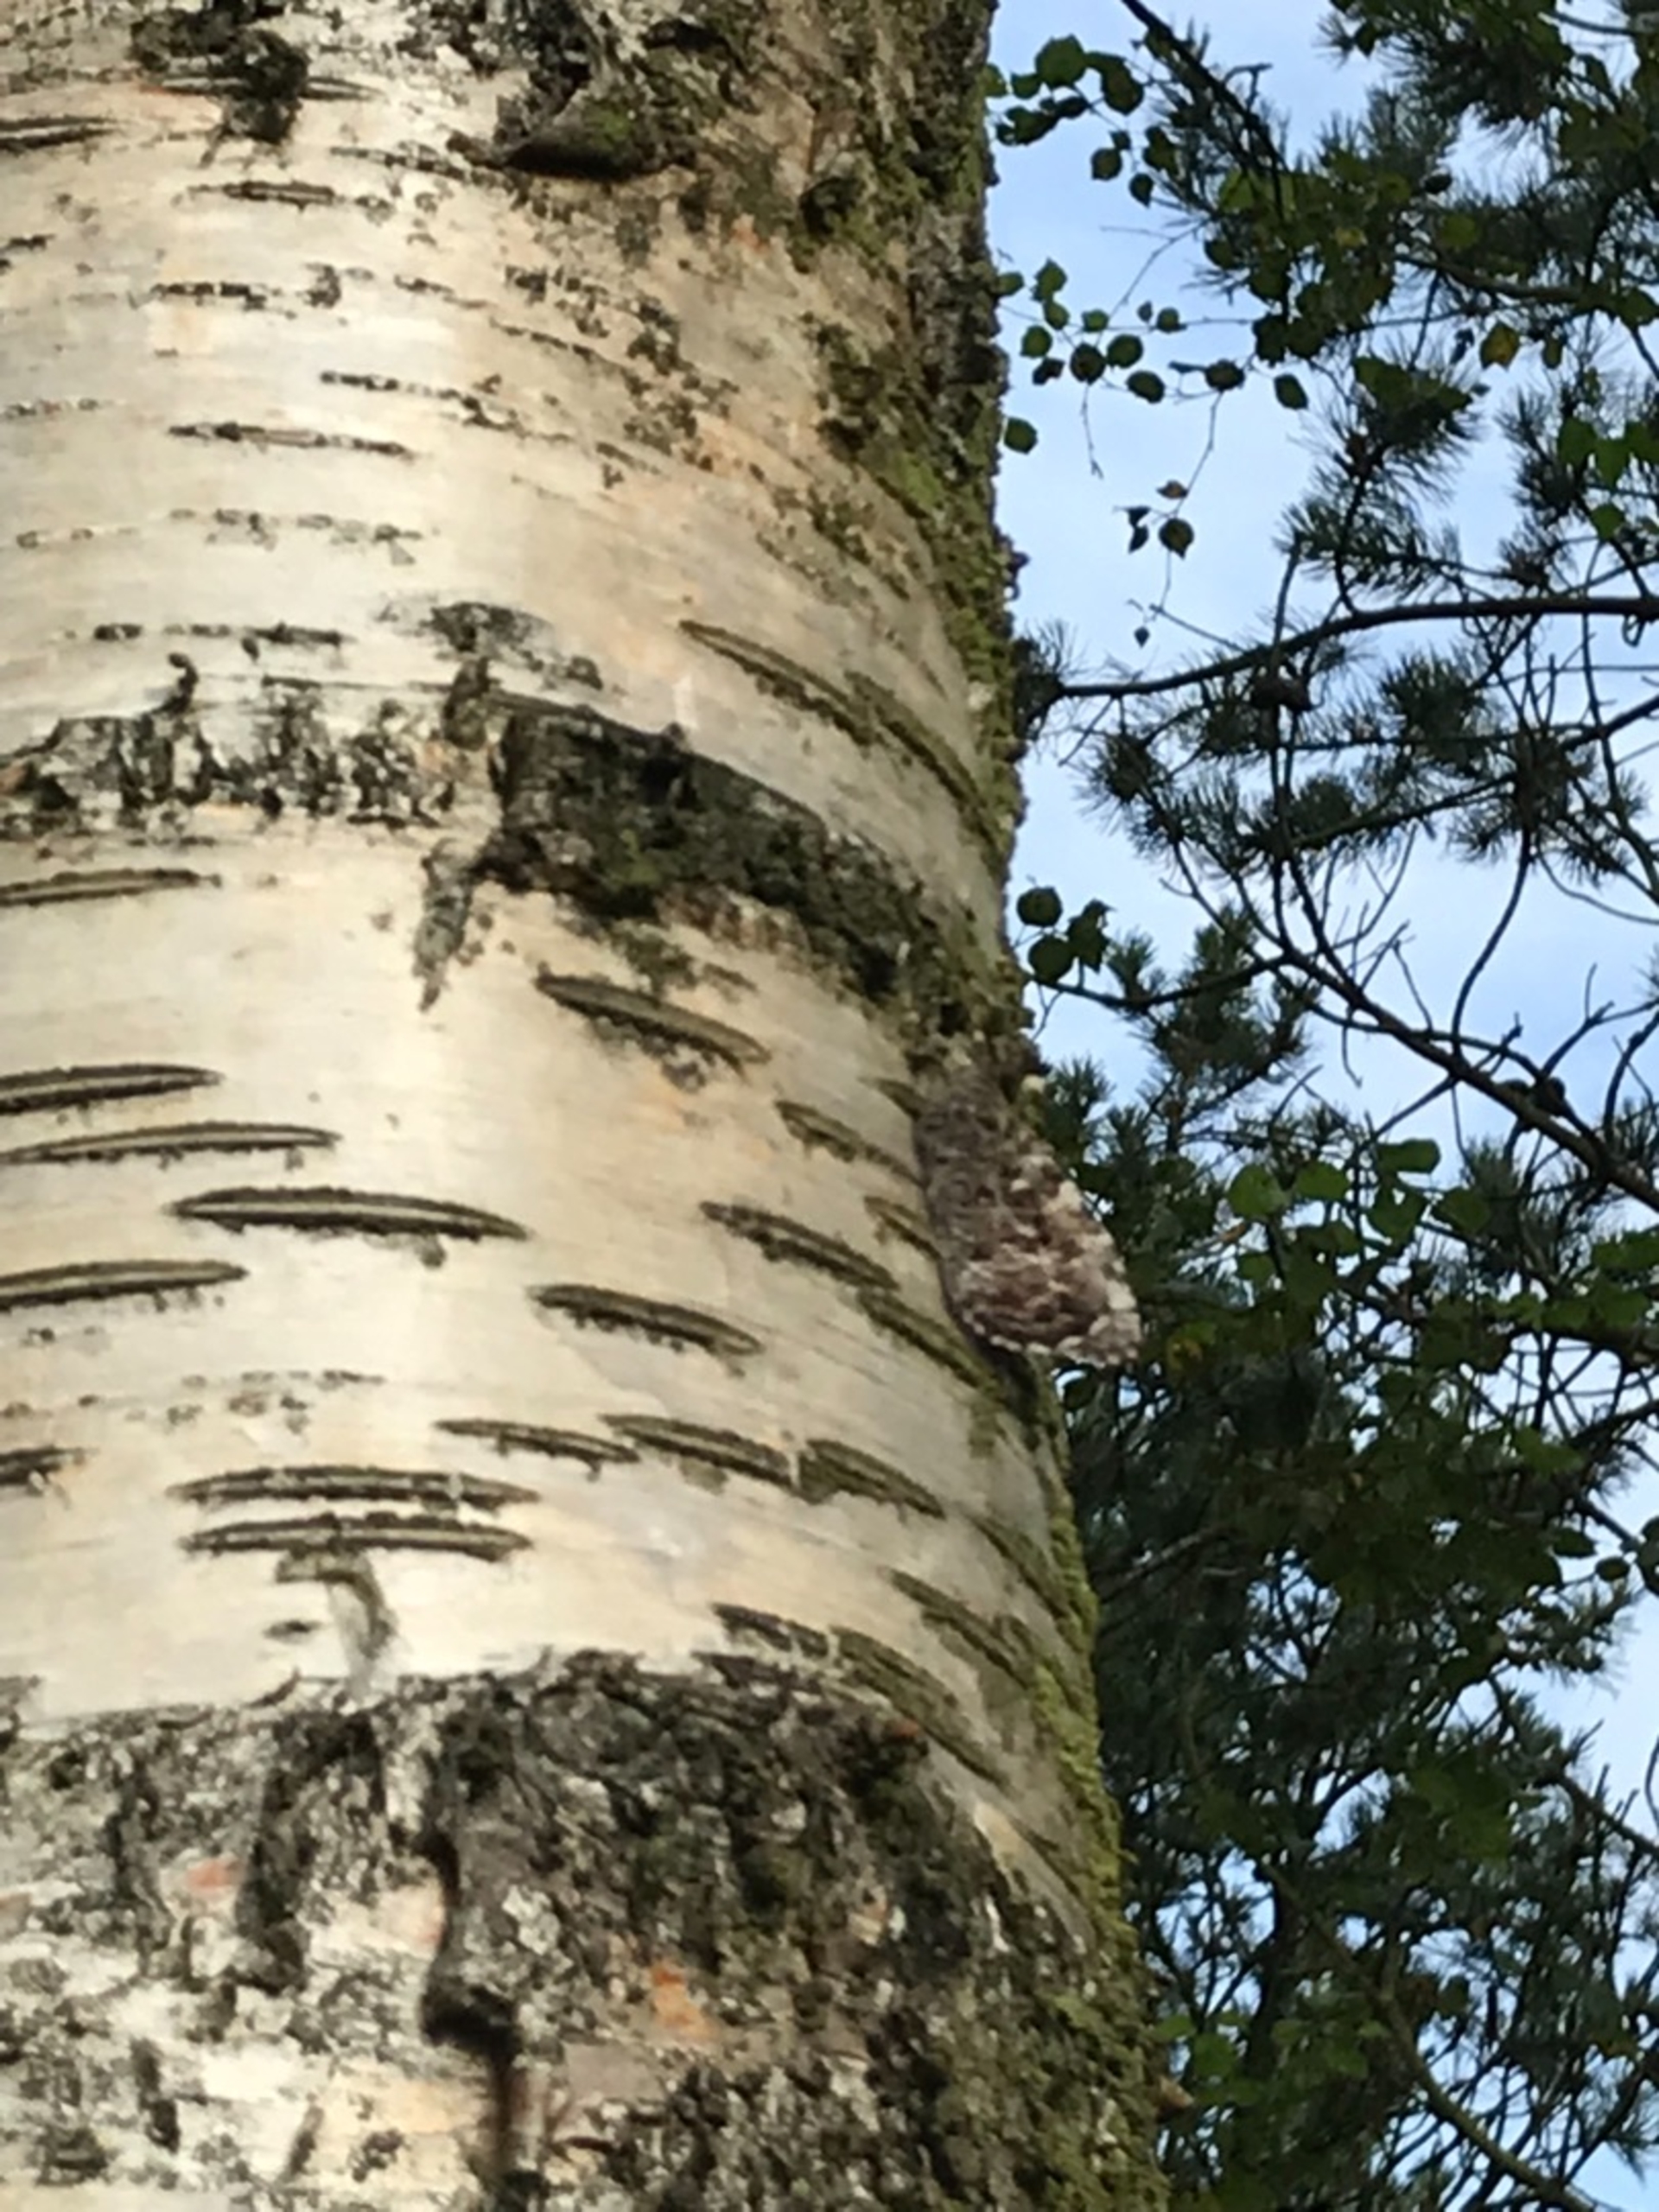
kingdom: Animalia
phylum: Arthropoda
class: Insecta
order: Lepidoptera
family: Nymphalidae
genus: Hipparchia
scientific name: Hipparchia semele
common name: Sandrandøje
